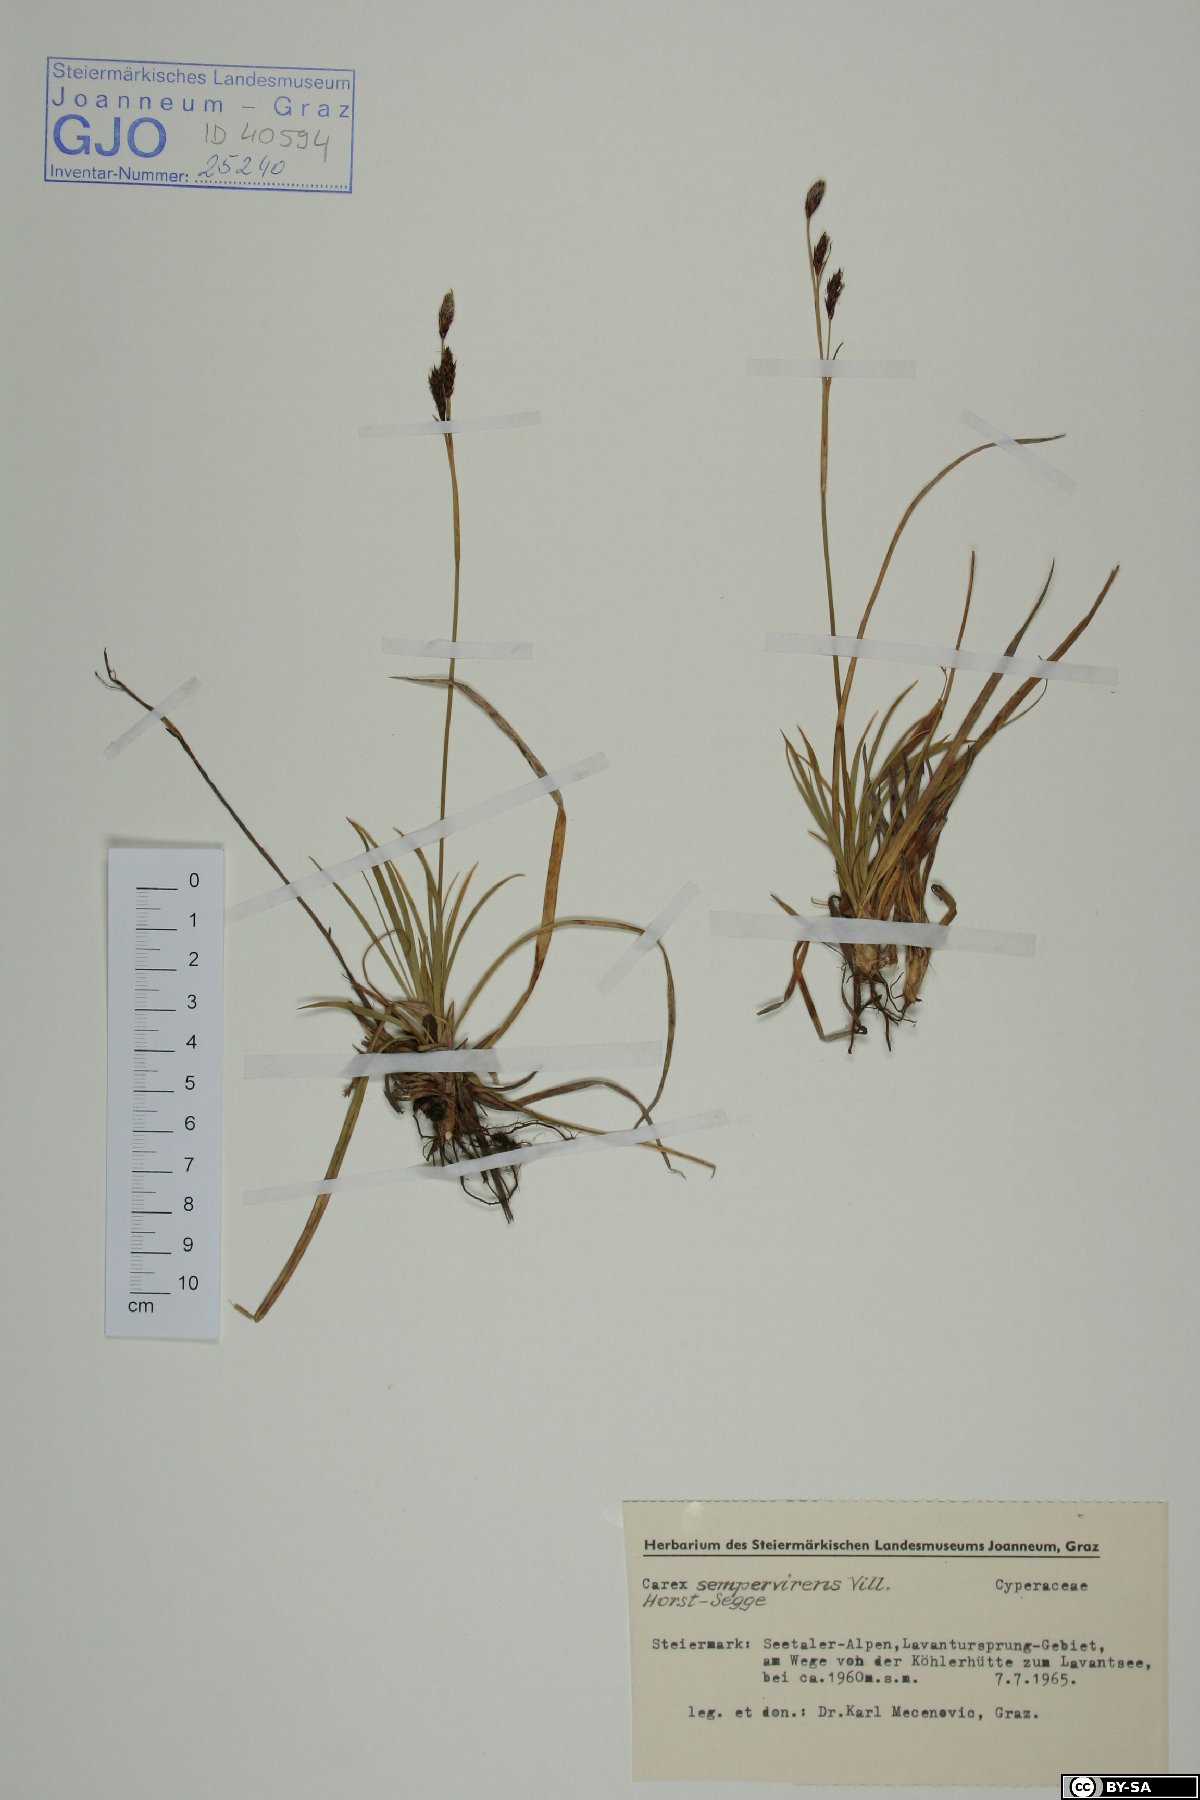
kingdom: Plantae
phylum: Tracheophyta
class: Liliopsida
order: Poales
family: Cyperaceae
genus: Carex
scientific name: Carex sempervirens
